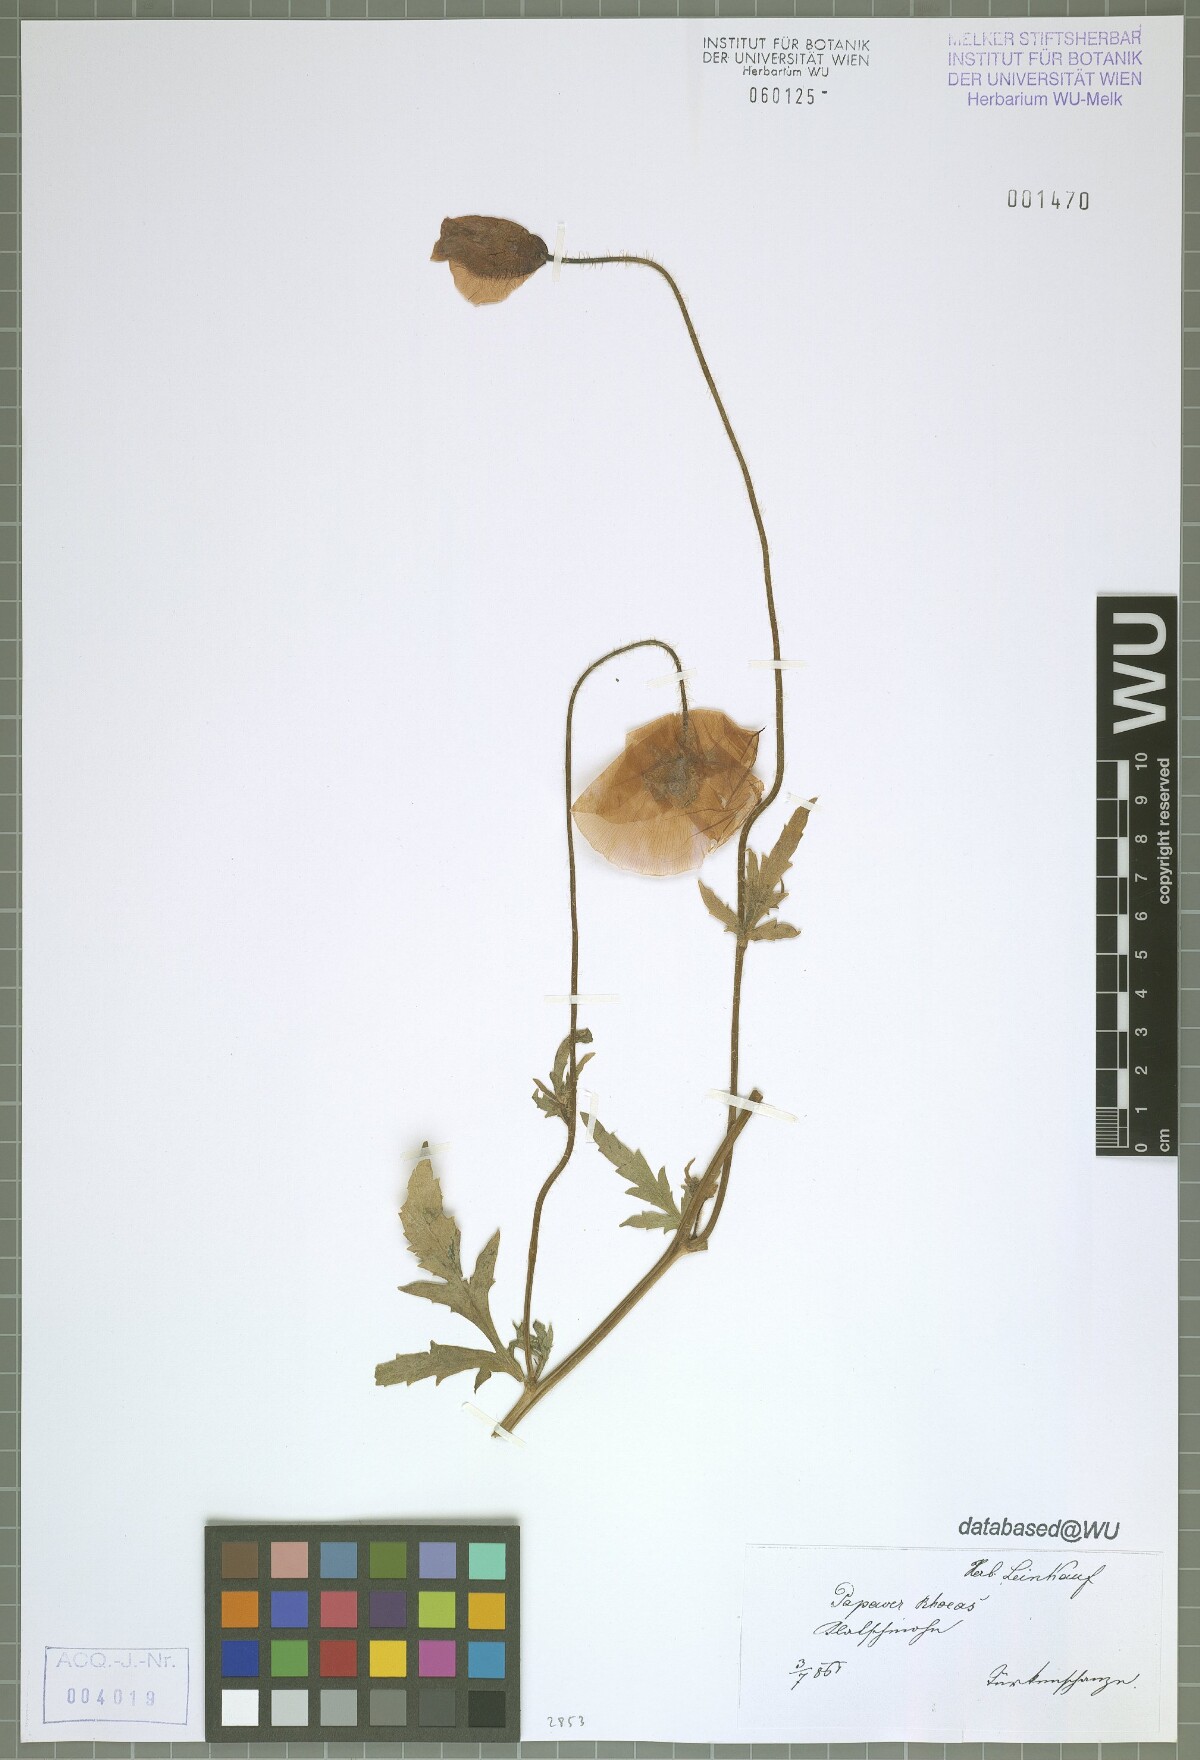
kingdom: Plantae
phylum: Tracheophyta
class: Magnoliopsida
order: Ranunculales
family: Papaveraceae
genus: Papaver
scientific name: Papaver rhoeas
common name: Corn poppy
